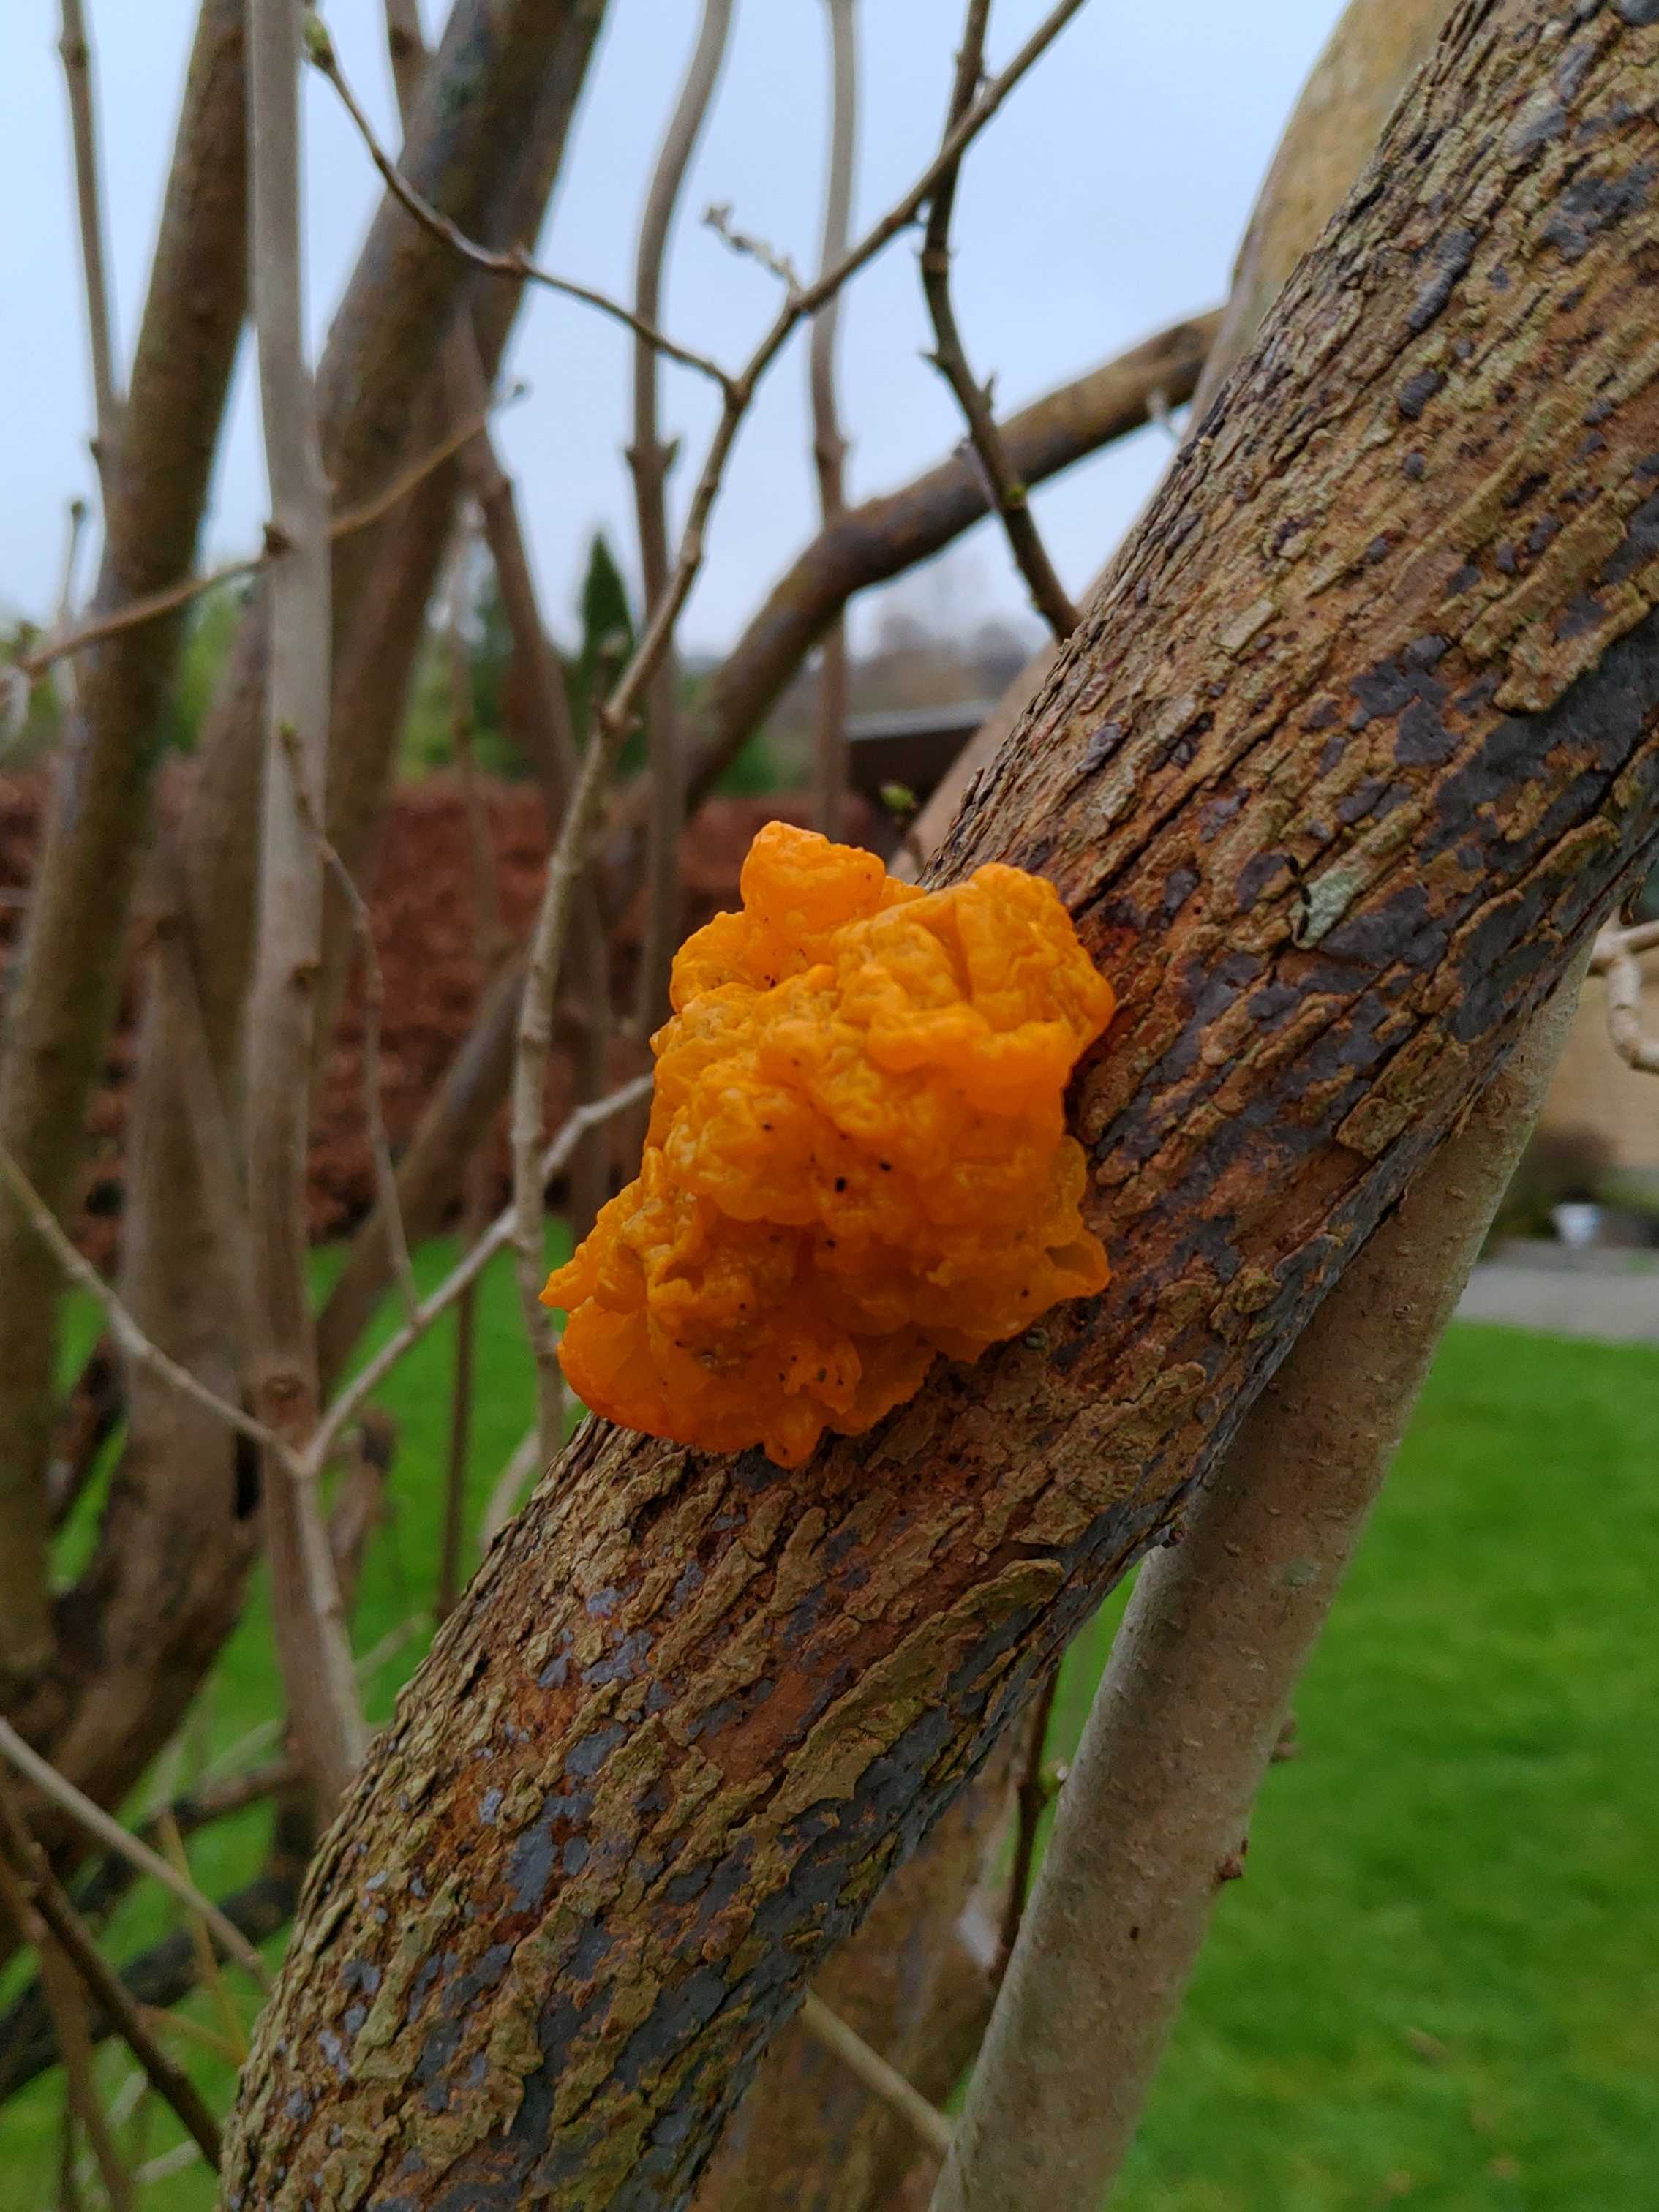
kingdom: Fungi
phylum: Basidiomycota
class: Tremellomycetes
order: Tremellales
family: Tremellaceae
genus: Tremella
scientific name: Tremella mesenterica
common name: gul bævresvamp
